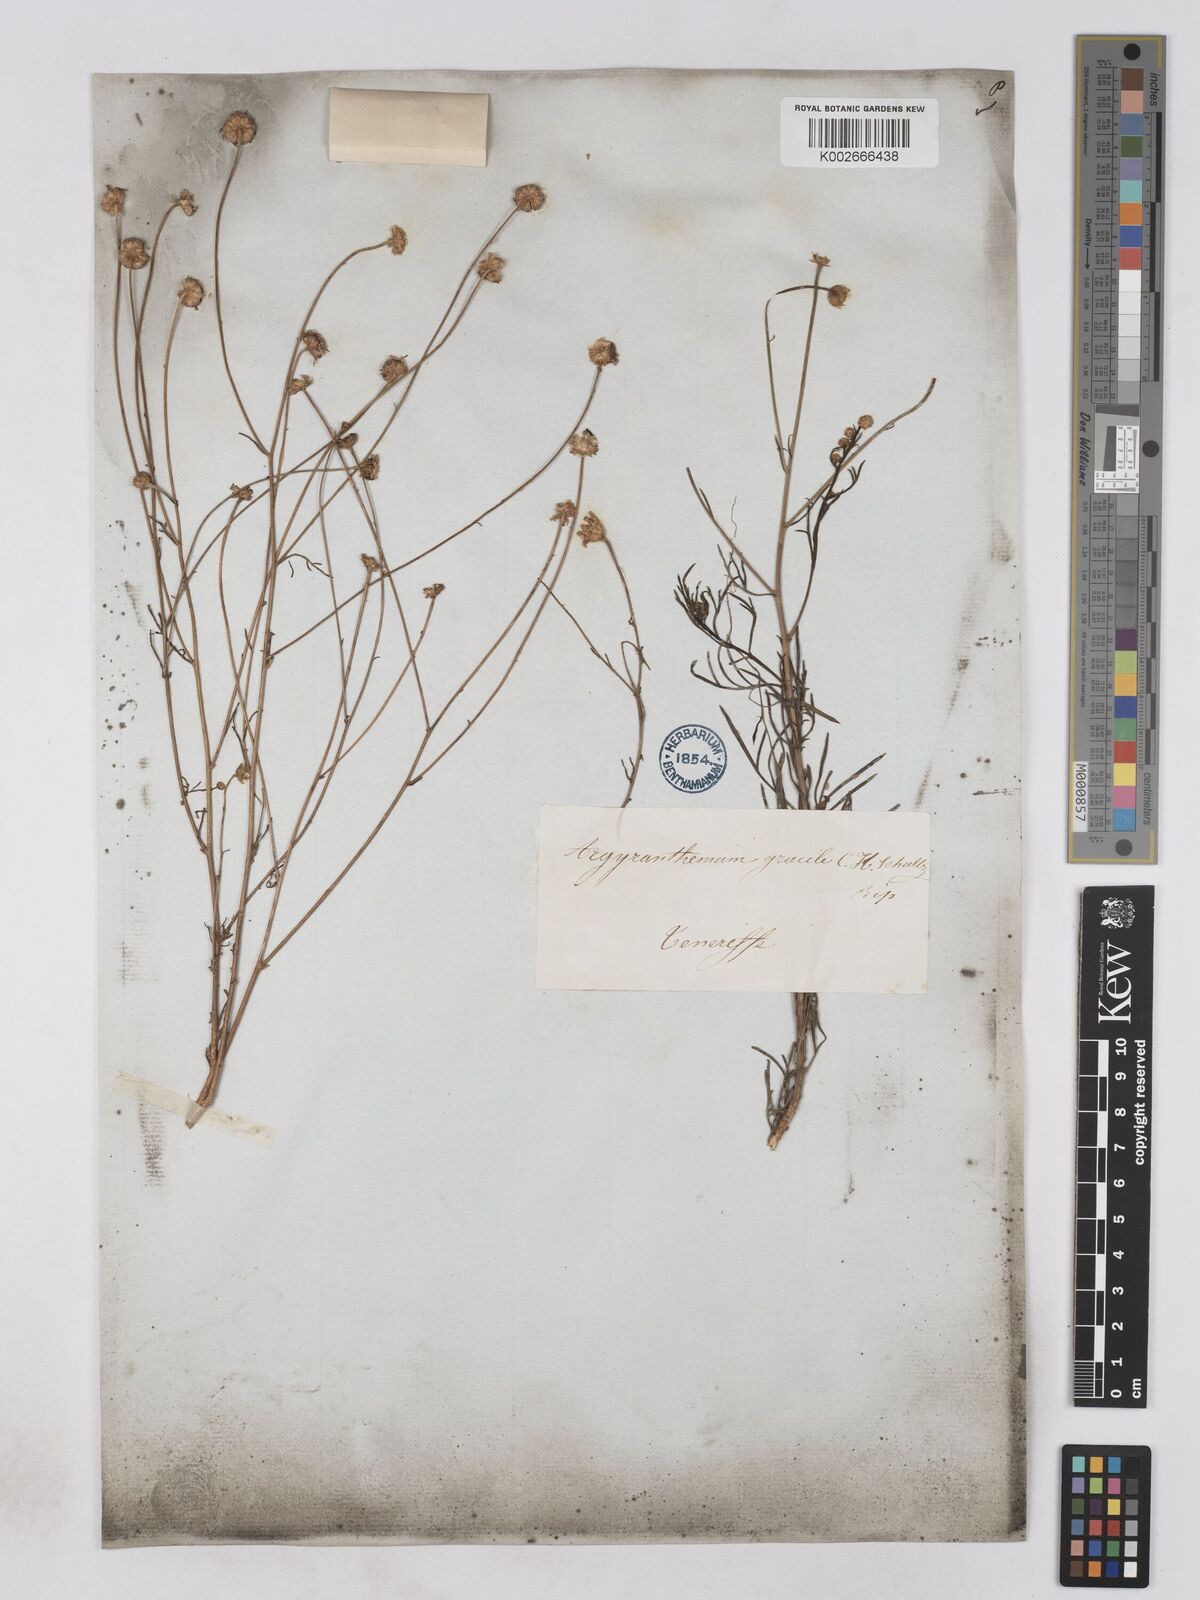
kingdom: Plantae
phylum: Tracheophyta
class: Magnoliopsida
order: Asterales
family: Asteraceae
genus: Argyranthemum
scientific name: Argyranthemum gracile
